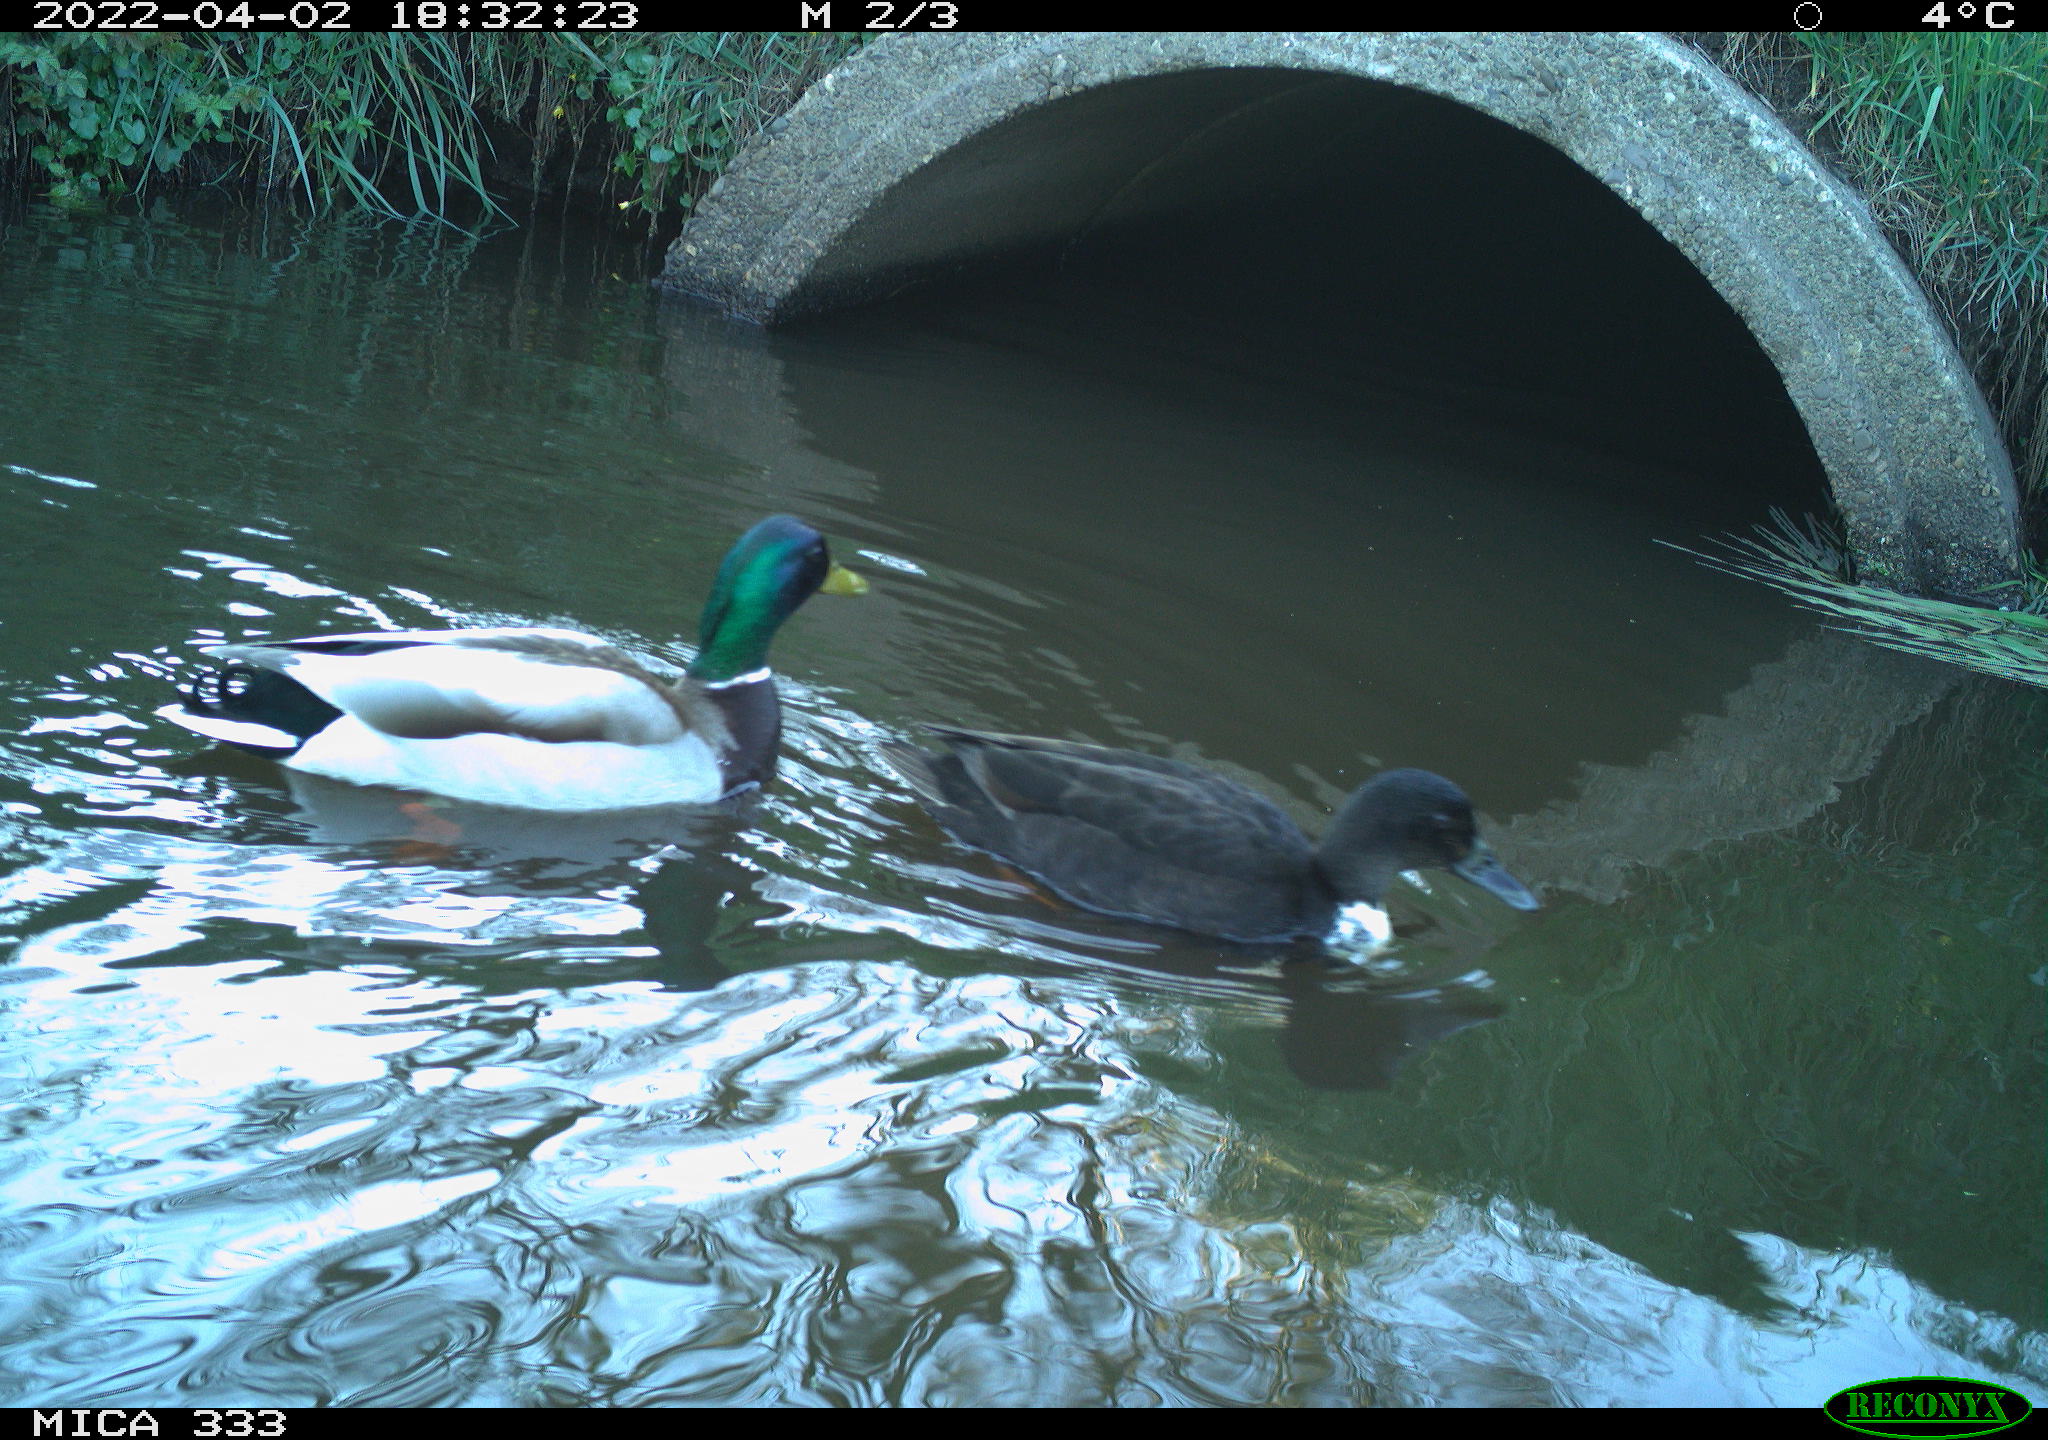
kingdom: Animalia
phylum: Chordata
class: Aves
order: Anseriformes
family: Anatidae
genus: Anas
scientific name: Anas platyrhynchos
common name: Mallard
